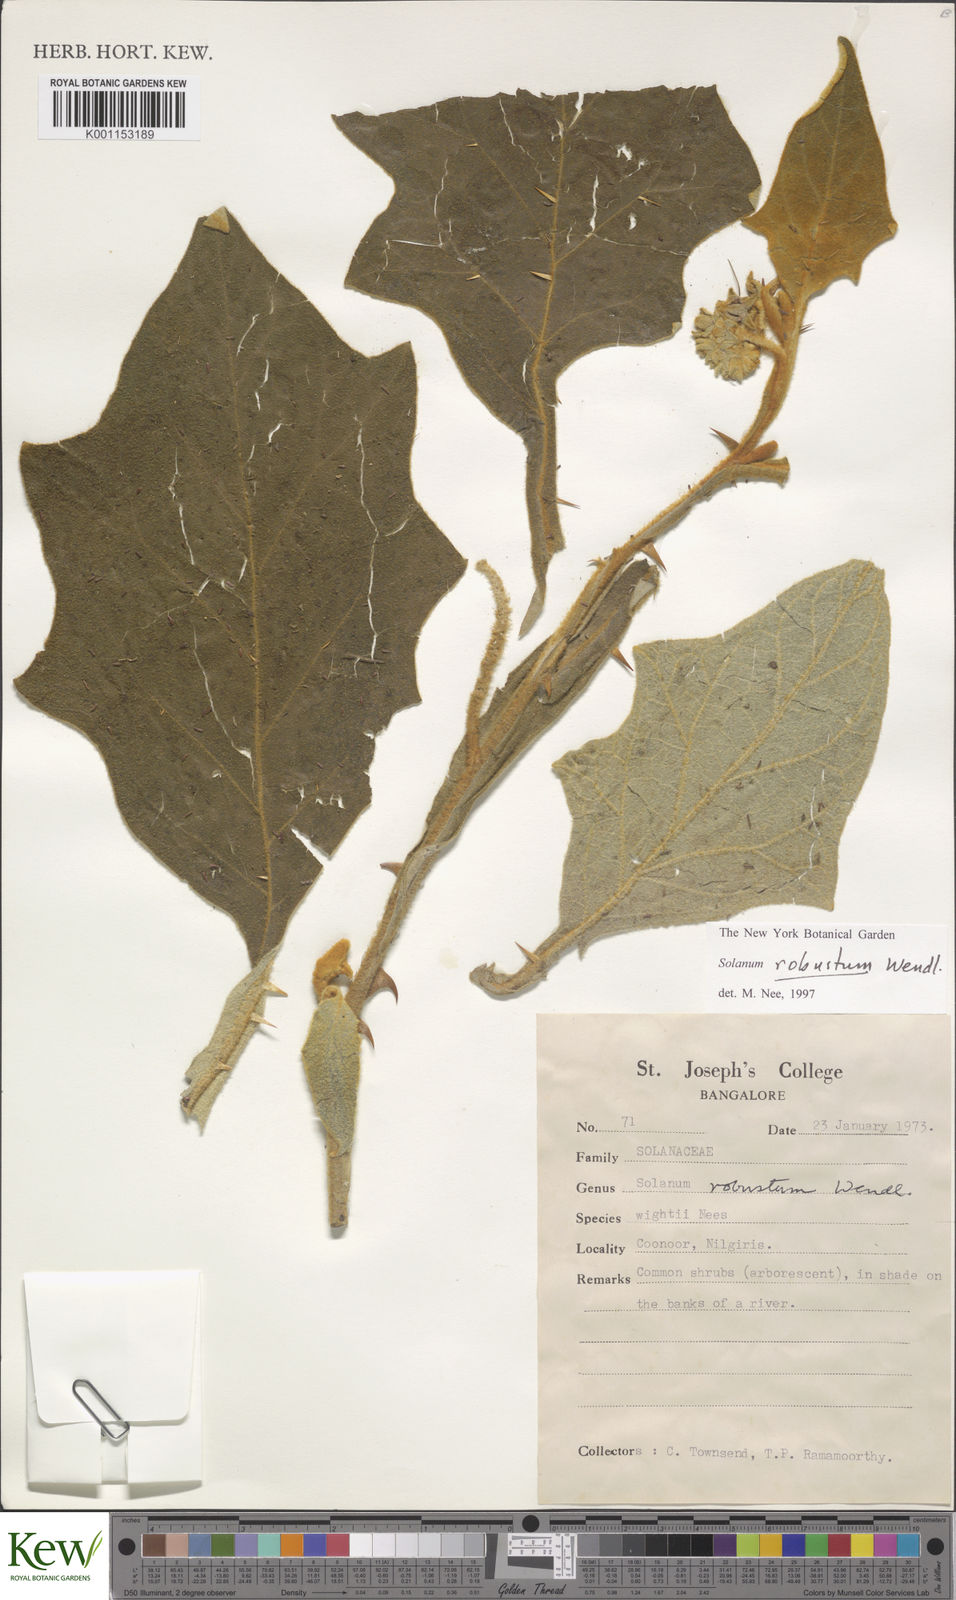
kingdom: Plantae
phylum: Tracheophyta
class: Magnoliopsida
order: Solanales
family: Solanaceae
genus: Solanum
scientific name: Solanum robustum
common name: Shrubby nightshade
